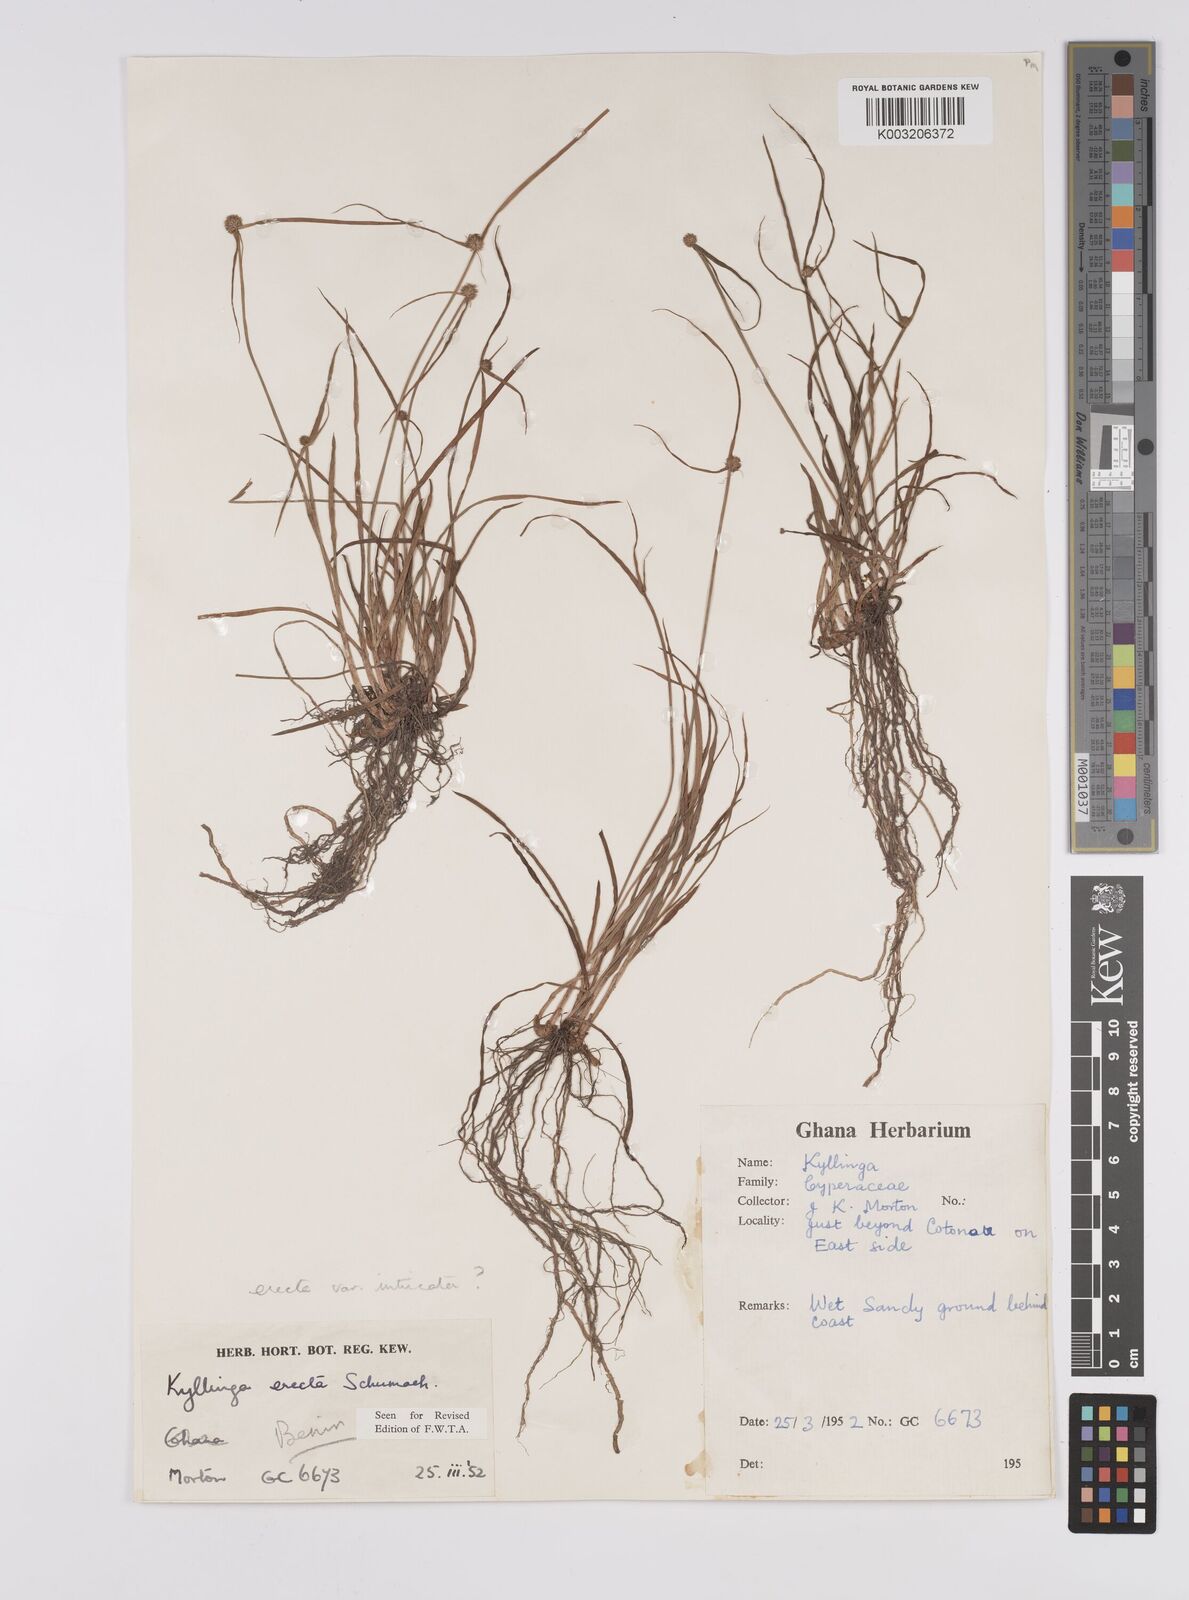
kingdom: Plantae
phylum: Tracheophyta
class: Liliopsida
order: Poales
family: Cyperaceae
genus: Cyperus
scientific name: Cyperus erectus
